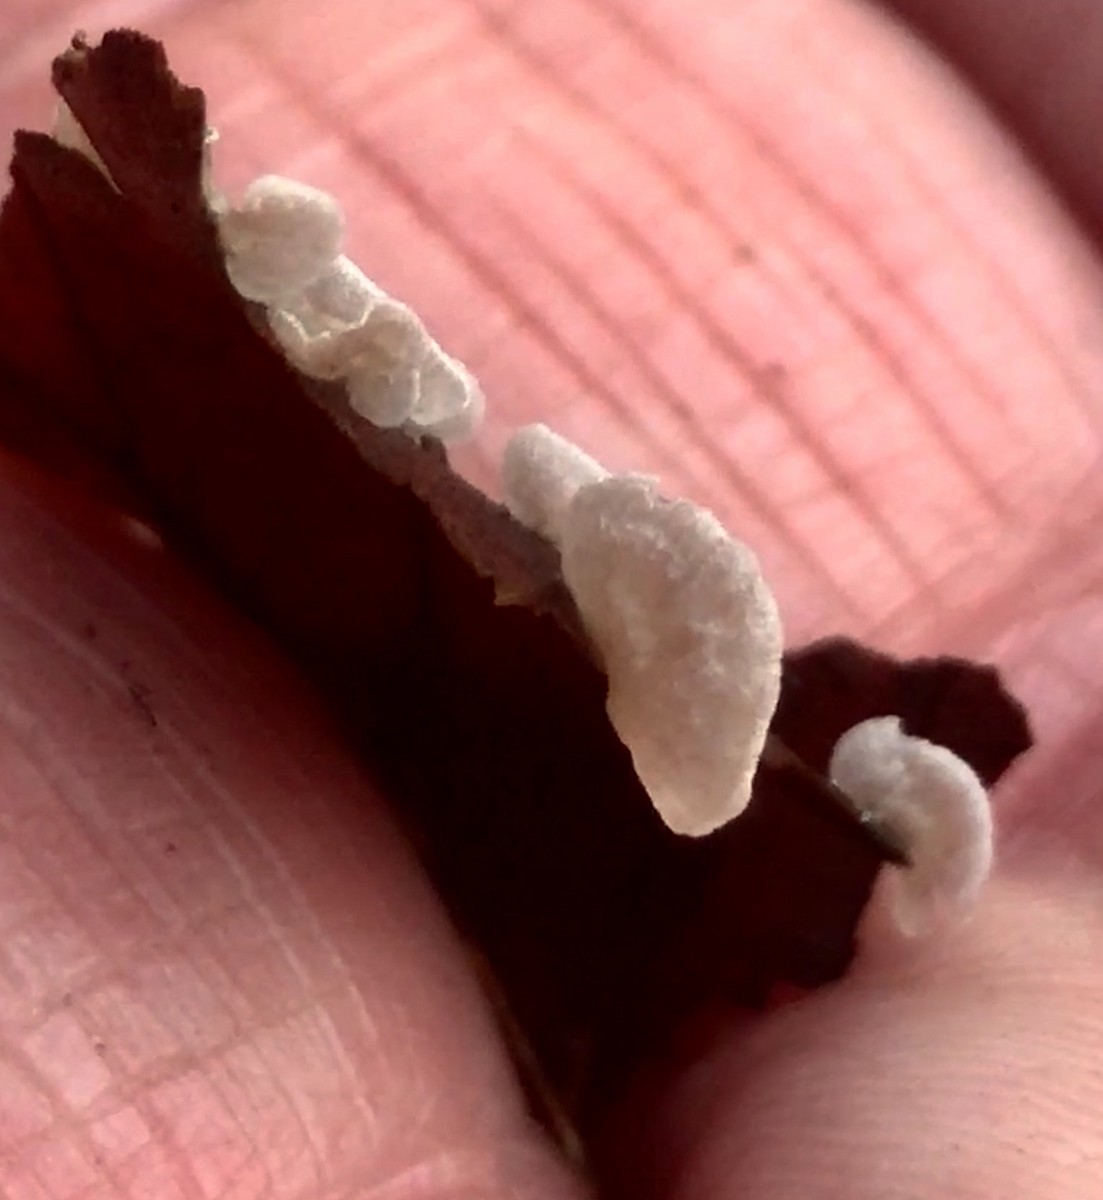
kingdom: Fungi
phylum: Basidiomycota
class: Agaricomycetes
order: Agaricales
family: Hygrophoraceae
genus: Arrhenia
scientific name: Arrhenia retiruga
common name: lille fontænehat
